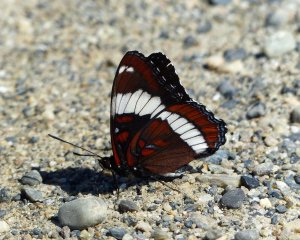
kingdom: Animalia
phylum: Arthropoda
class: Insecta
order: Lepidoptera
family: Nymphalidae
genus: Limenitis
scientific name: Limenitis arthemis
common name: Red-spotted Admiral
